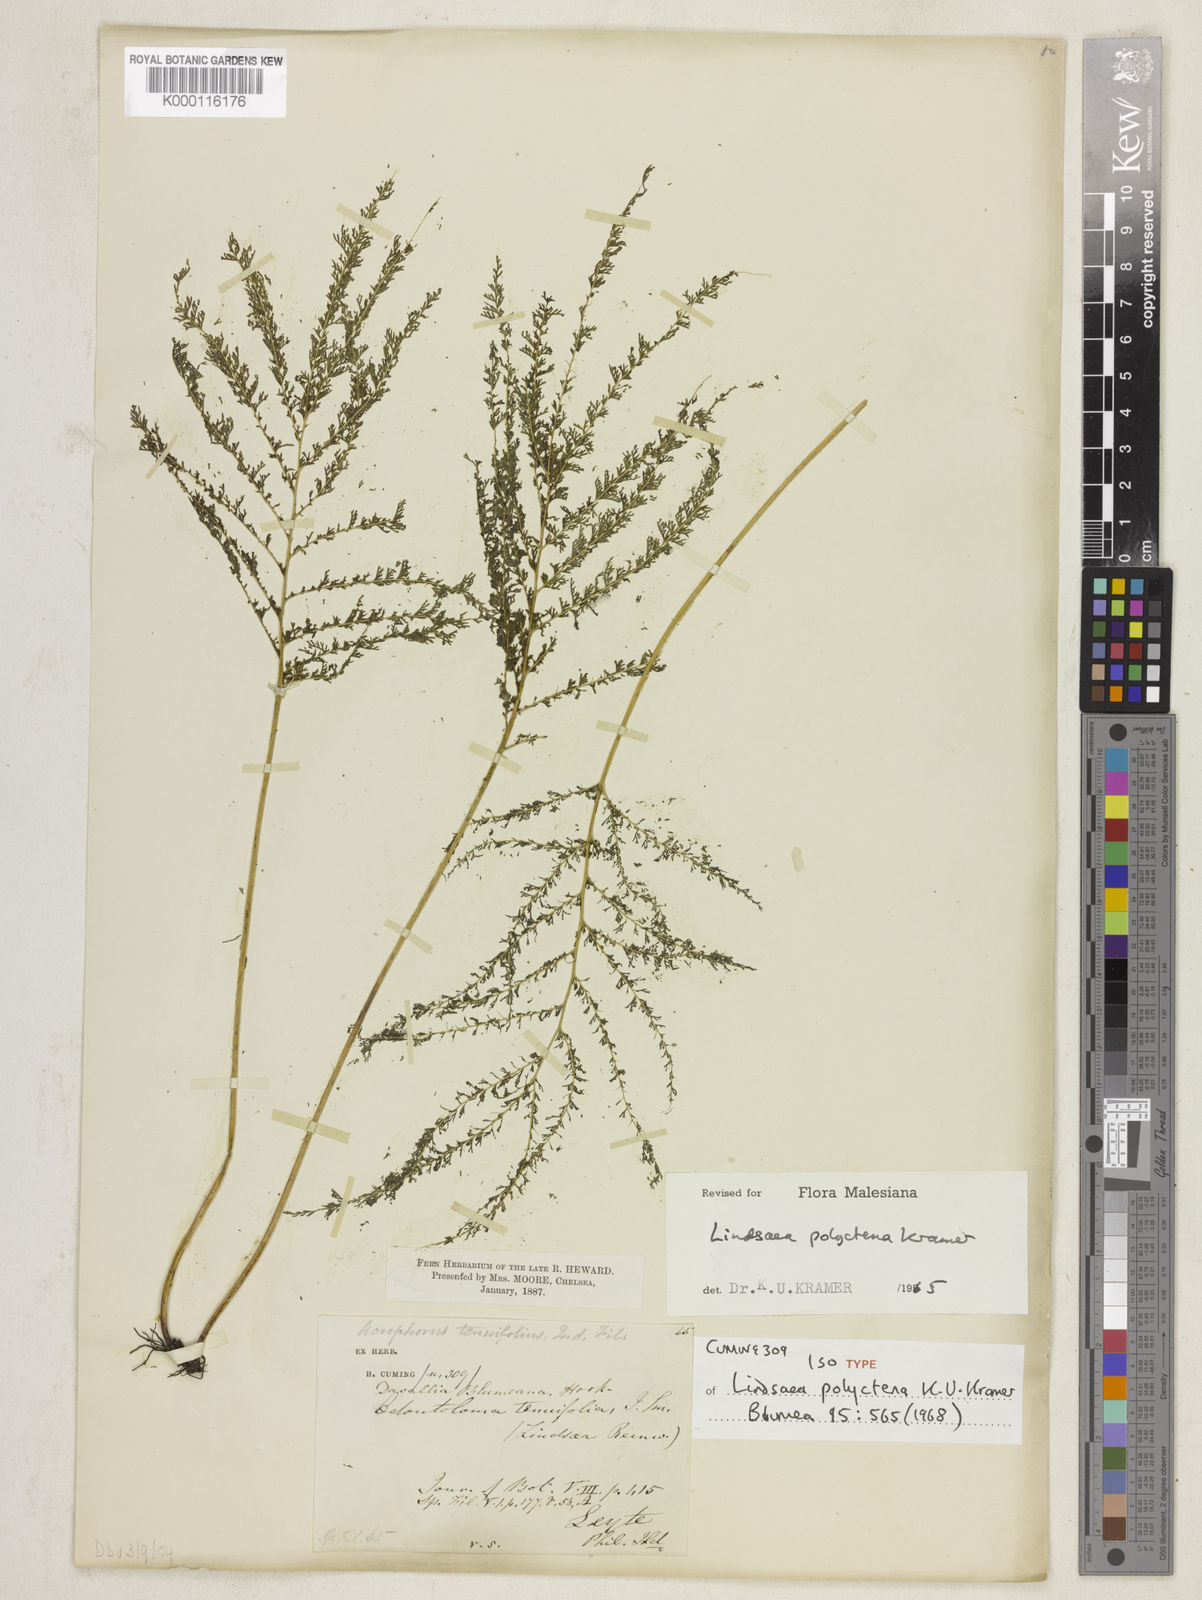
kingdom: Plantae
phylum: Tracheophyta
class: Polypodiopsida
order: Polypodiales
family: Lindsaeaceae
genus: Lindsaea
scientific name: Lindsaea tenuifolia
